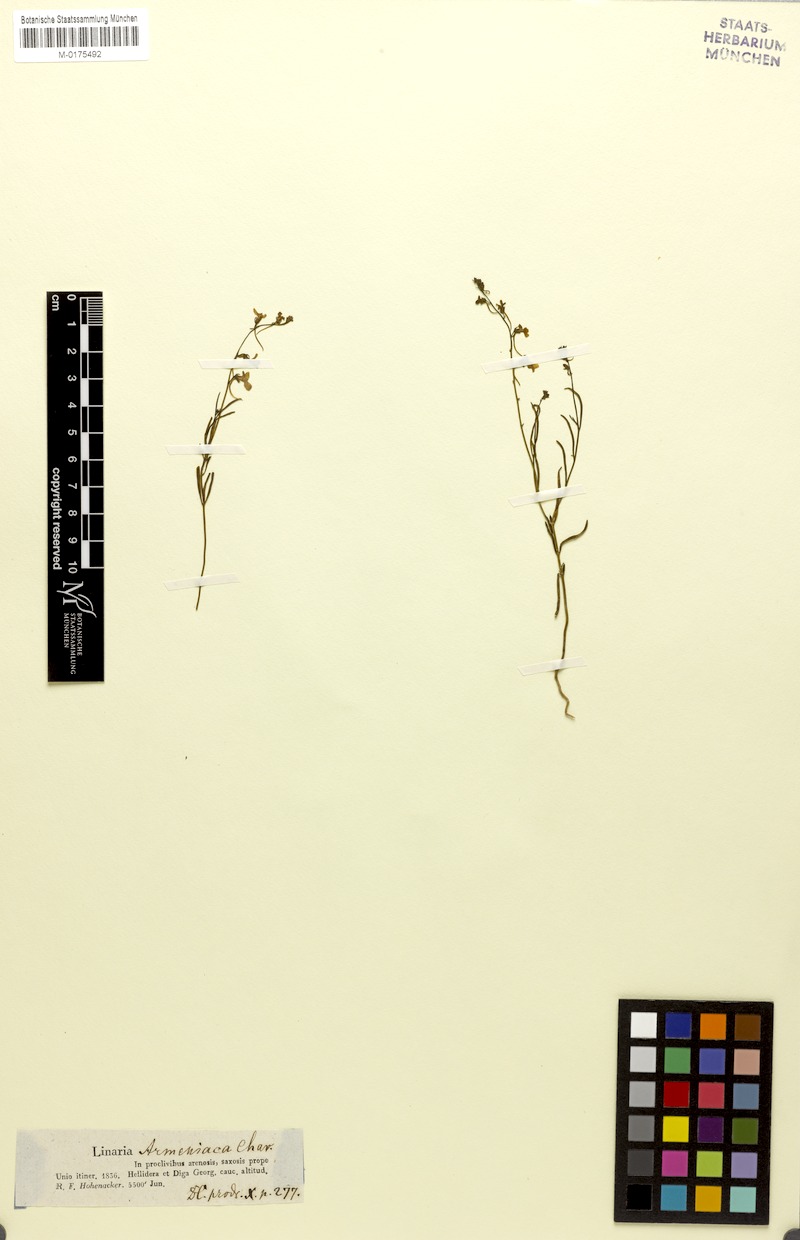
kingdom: Plantae
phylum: Tracheophyta
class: Magnoliopsida
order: Lamiales
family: Plantaginaceae
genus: Linaria
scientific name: Linaria armeniaca
